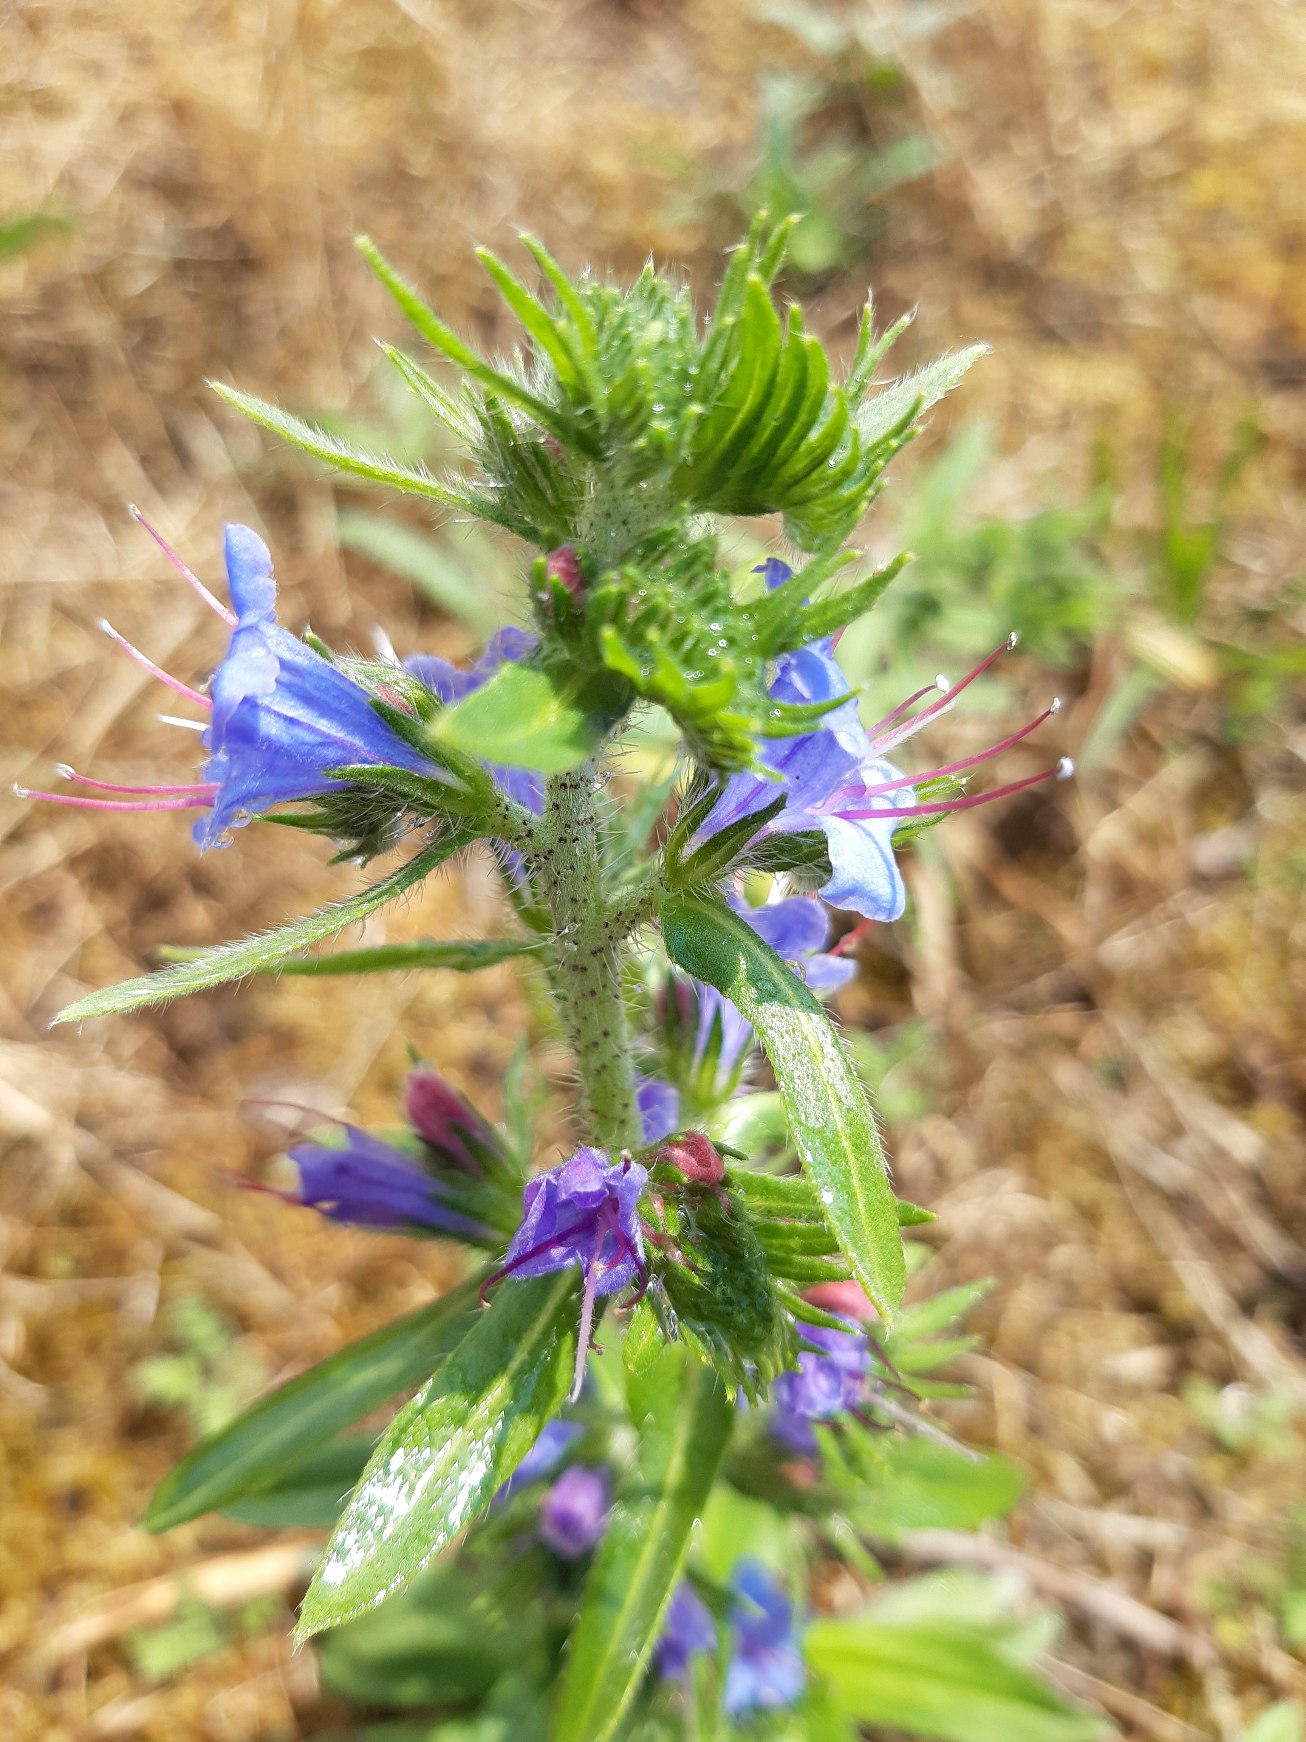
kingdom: Plantae
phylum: Tracheophyta
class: Magnoliopsida
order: Boraginales
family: Boraginaceae
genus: Echium
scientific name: Echium vulgare
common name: Slangehoved
